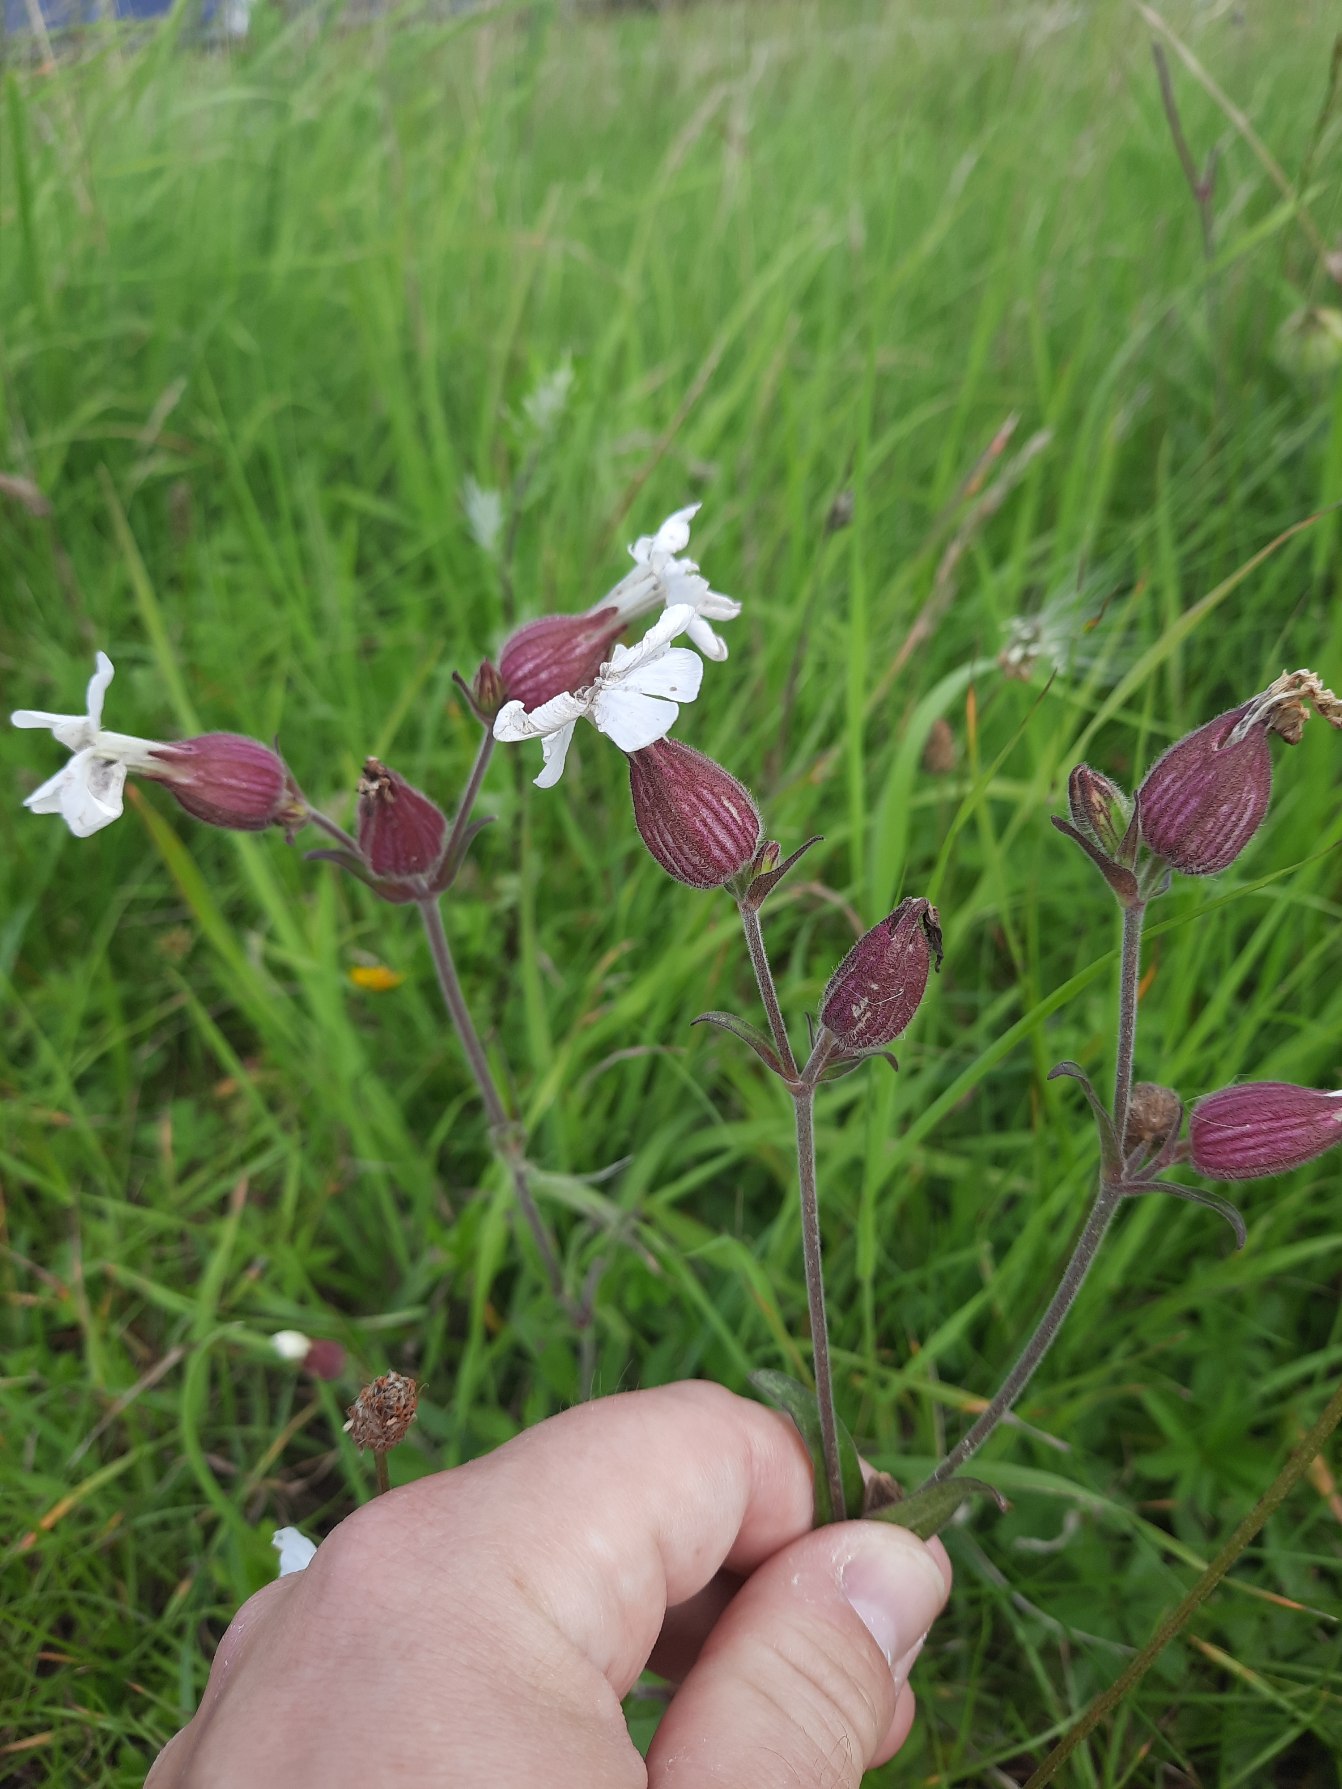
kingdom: Plantae
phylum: Tracheophyta
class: Magnoliopsida
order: Caryophyllales
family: Caryophyllaceae
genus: Silene
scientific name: Silene latifolia
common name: Aftenpragtstjerne
